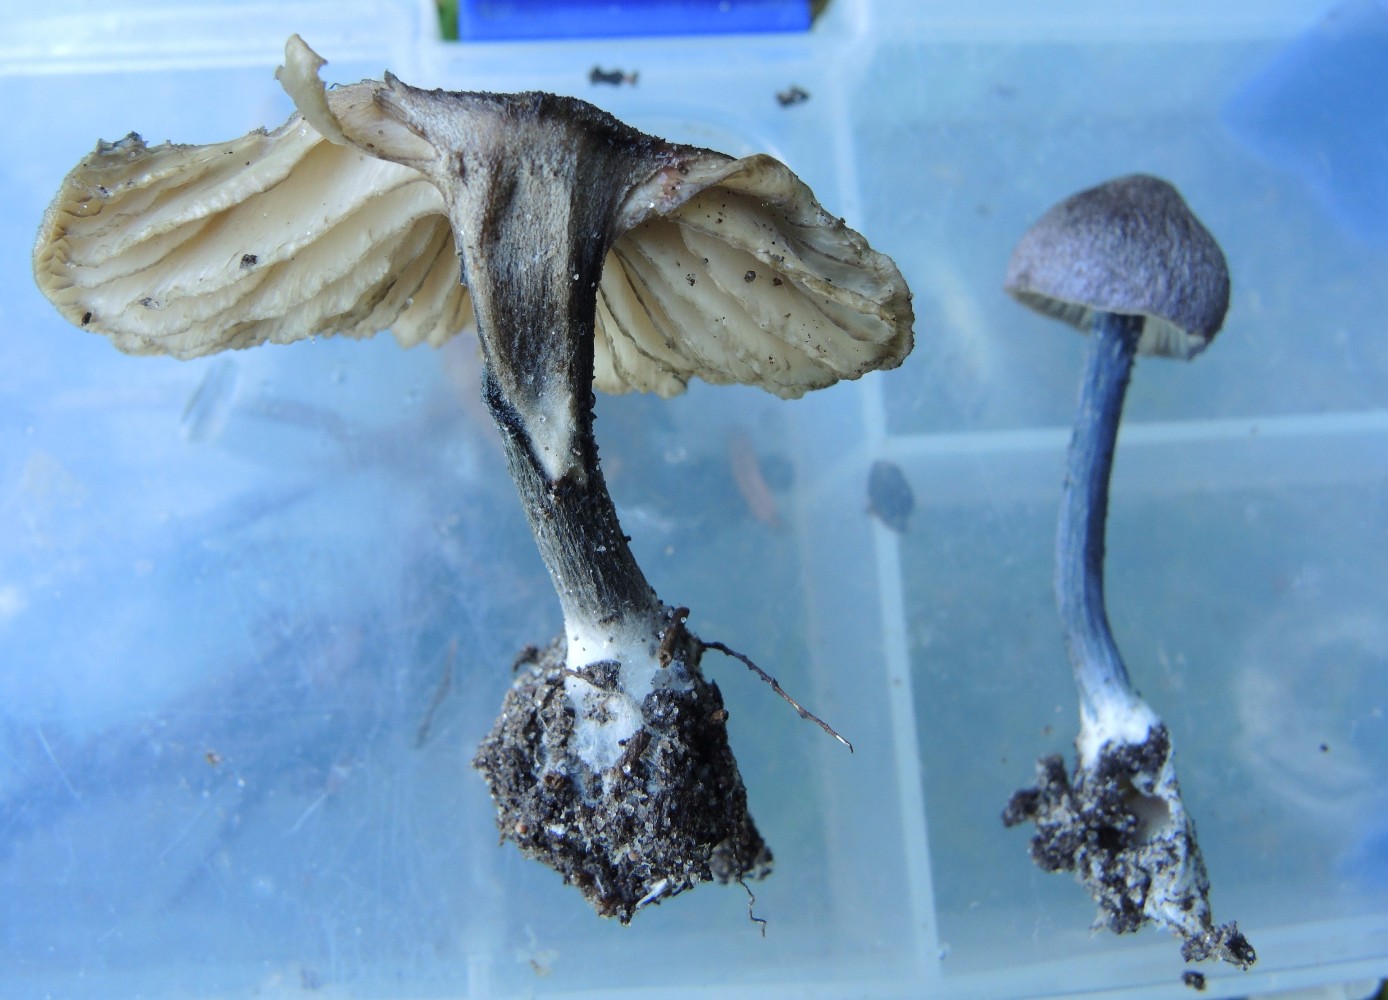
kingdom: Fungi
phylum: Basidiomycota
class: Agaricomycetes
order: Agaricales
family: Entolomataceae
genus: Entoloma
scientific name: Entoloma lampropus
